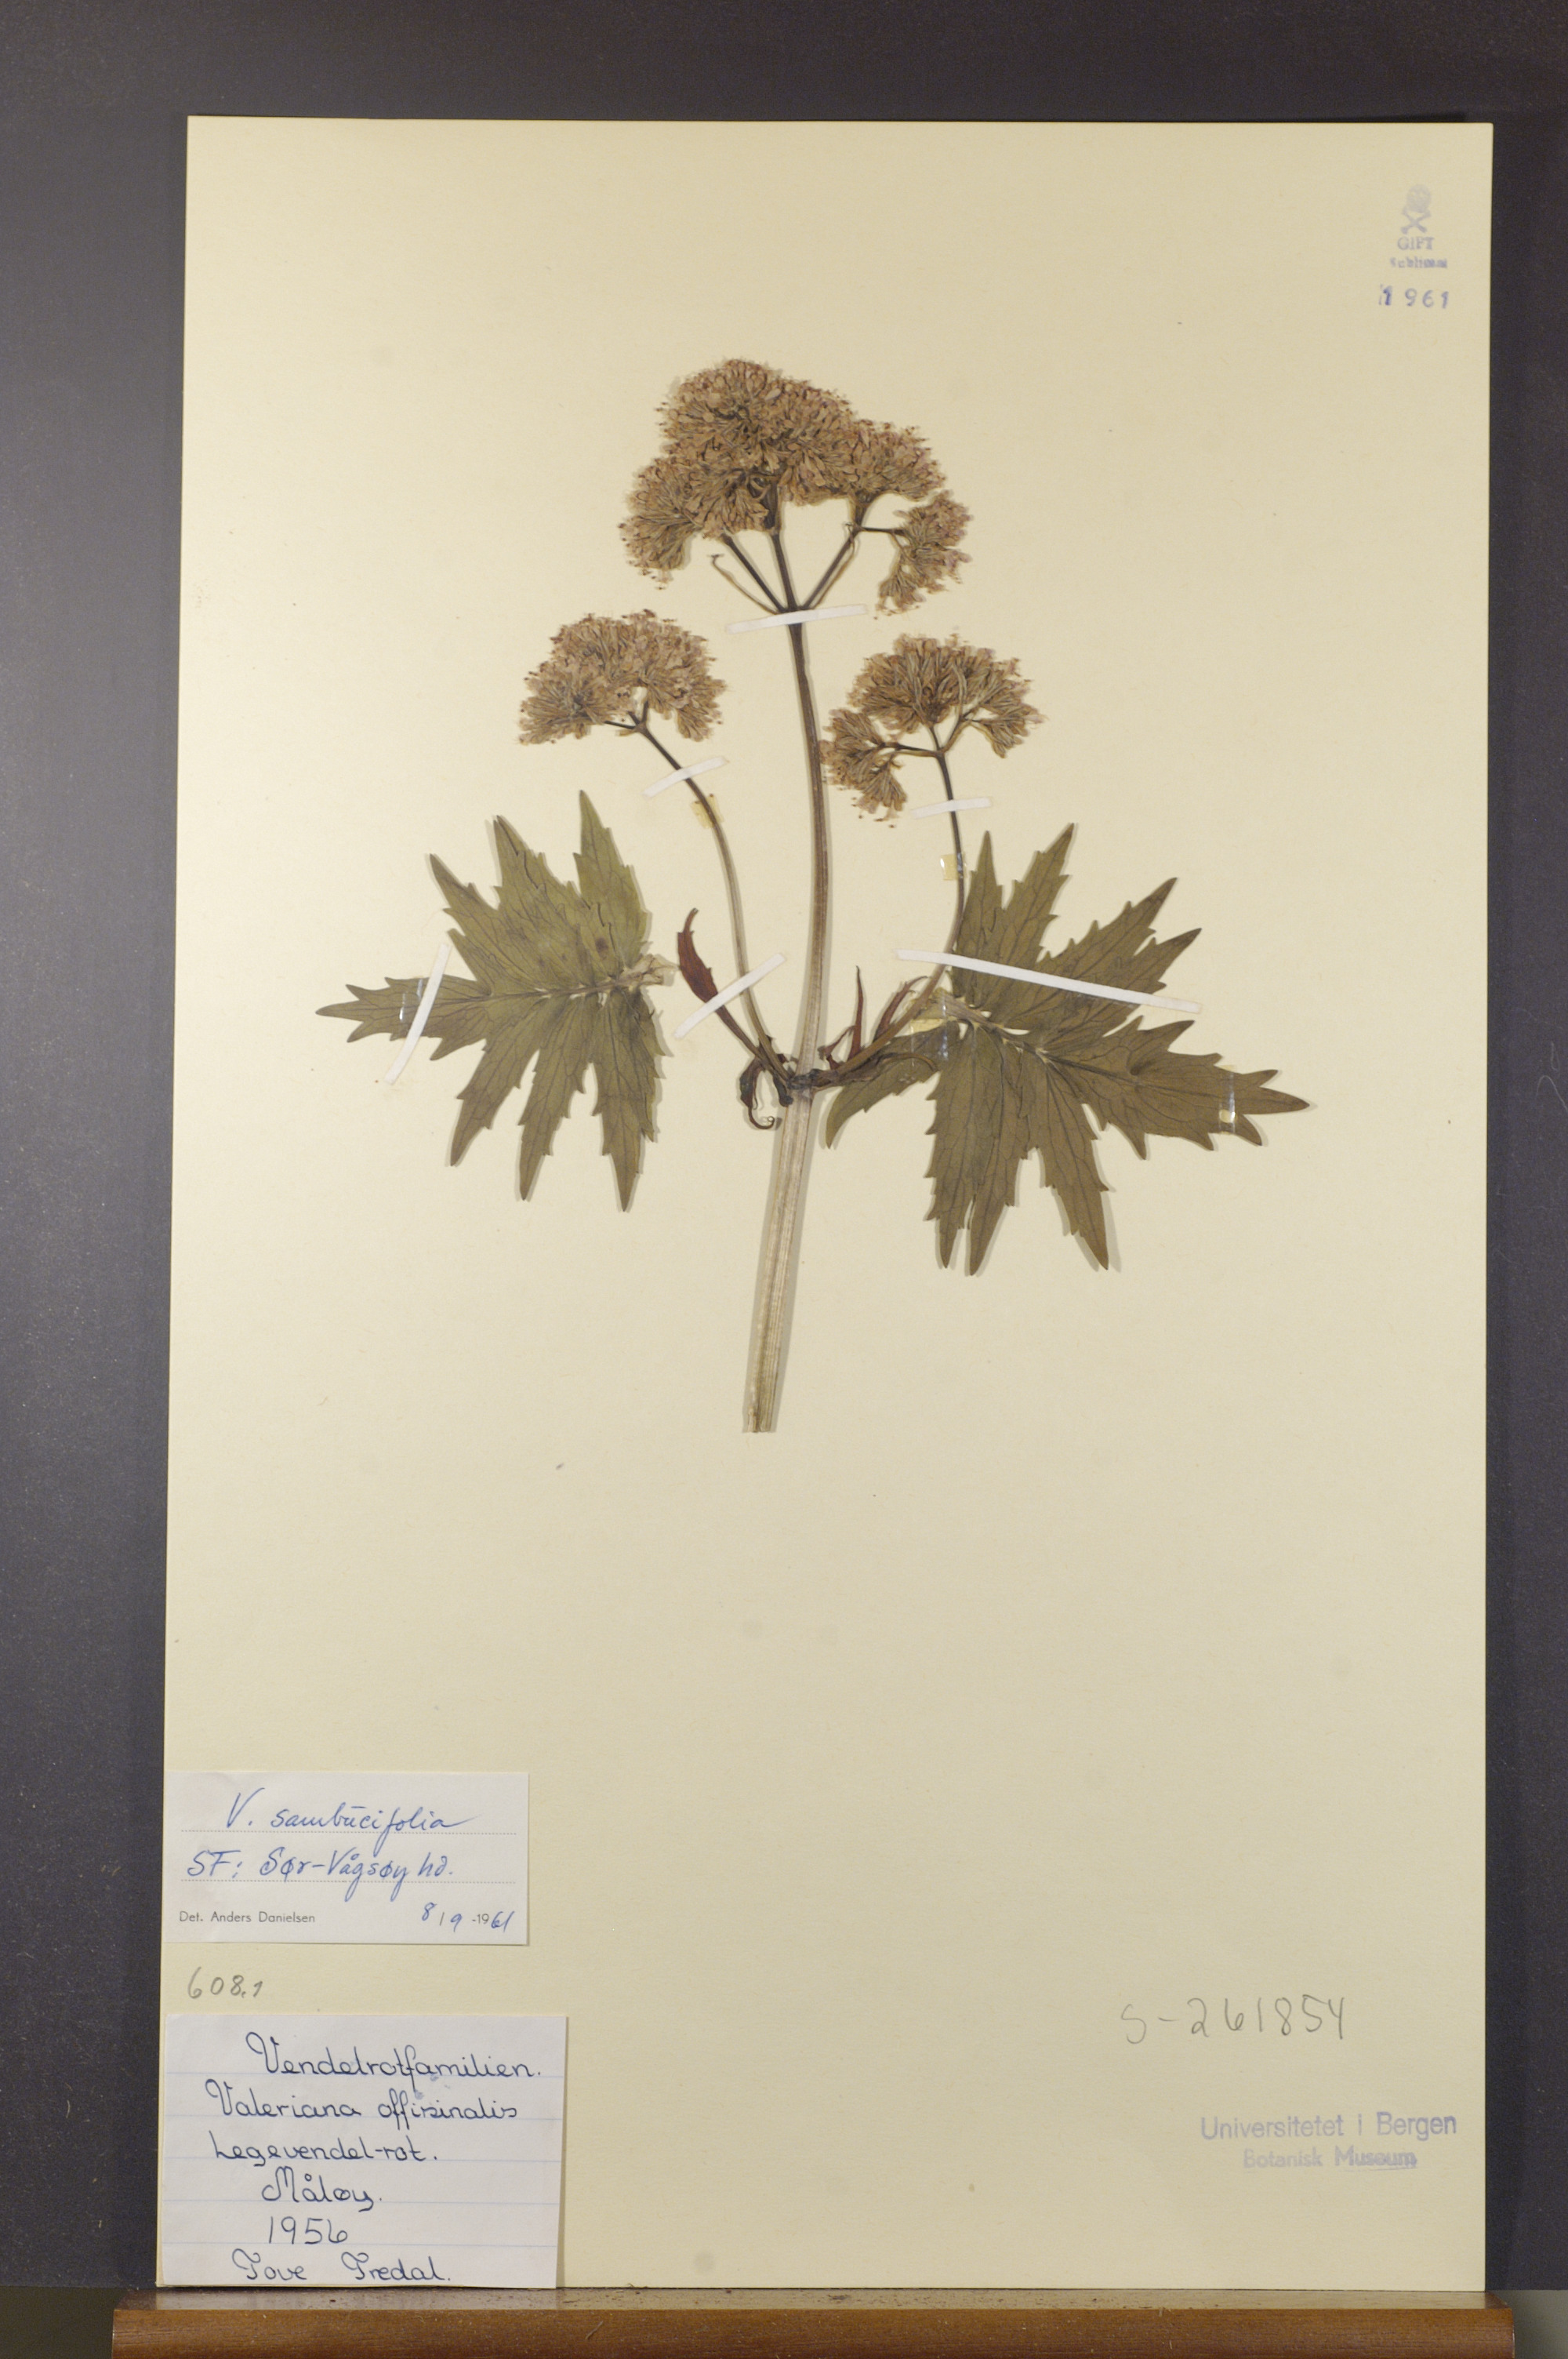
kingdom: Plantae
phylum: Tracheophyta
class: Magnoliopsida
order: Dipsacales
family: Caprifoliaceae
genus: Valeriana
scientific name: Valeriana excelsa
